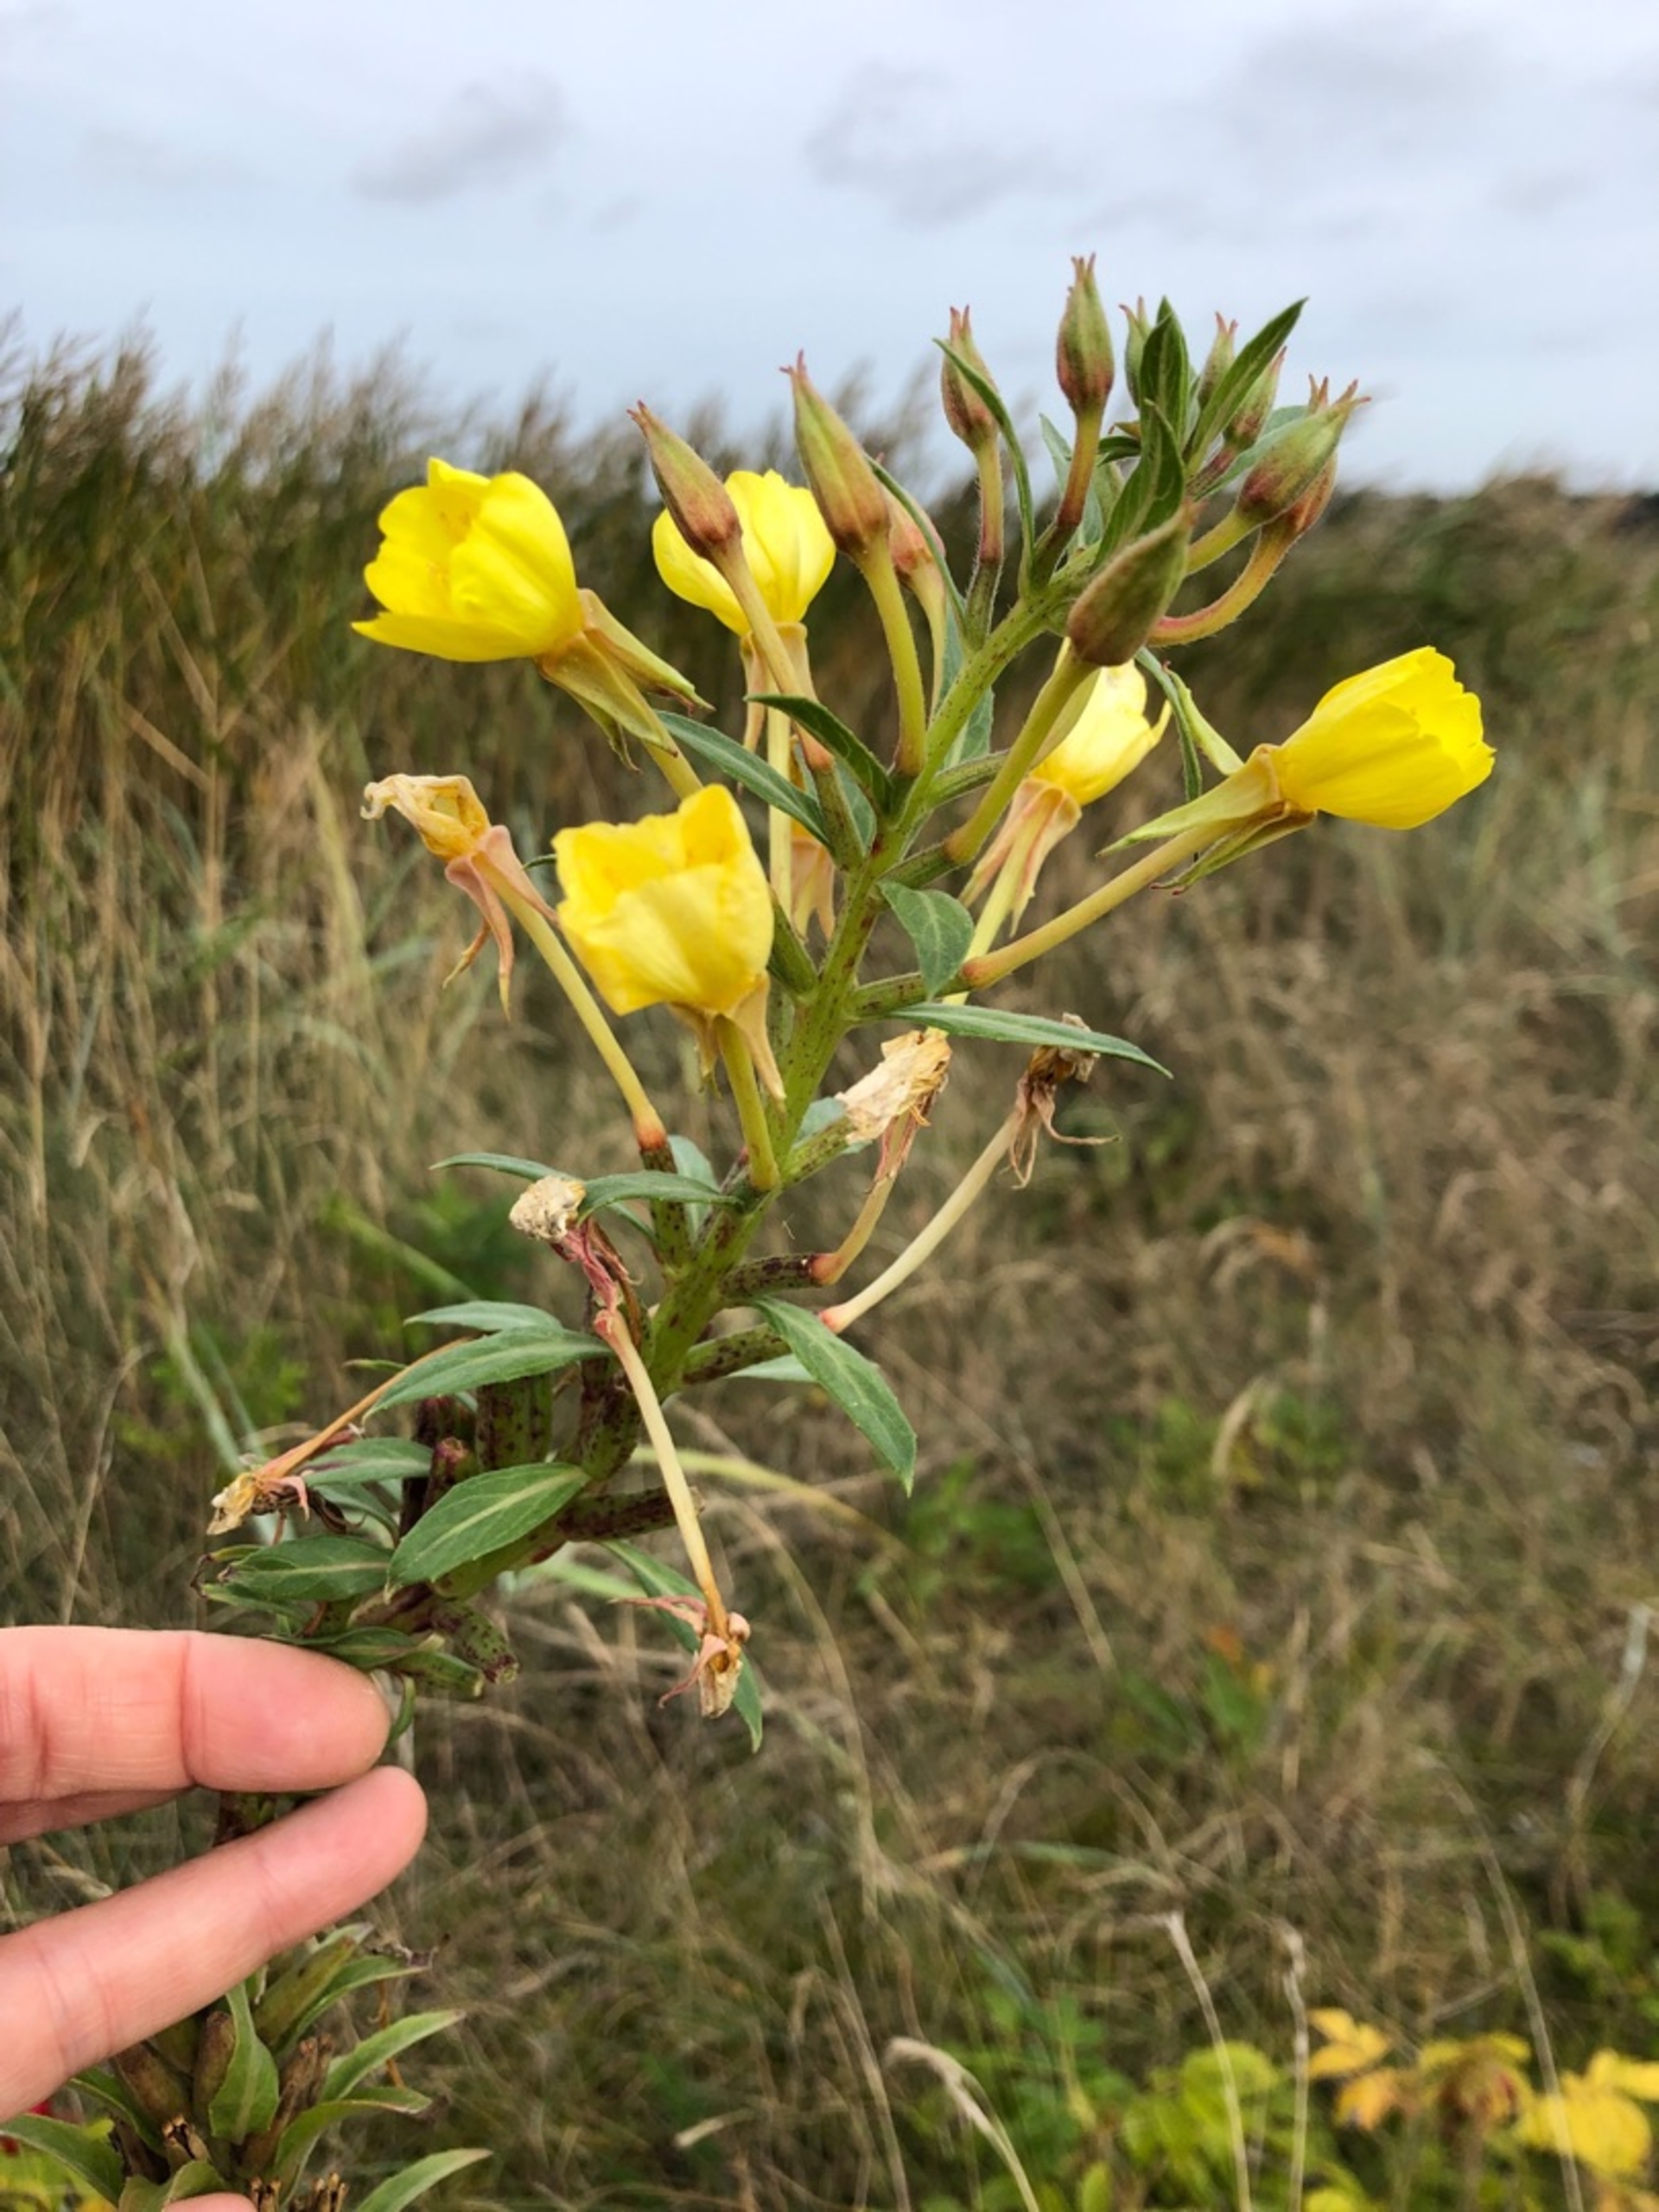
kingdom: Plantae
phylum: Tracheophyta
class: Magnoliopsida
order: Myrtales
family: Onagraceae
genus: Oenothera
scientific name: Oenothera ammophila
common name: Klit-natlys
